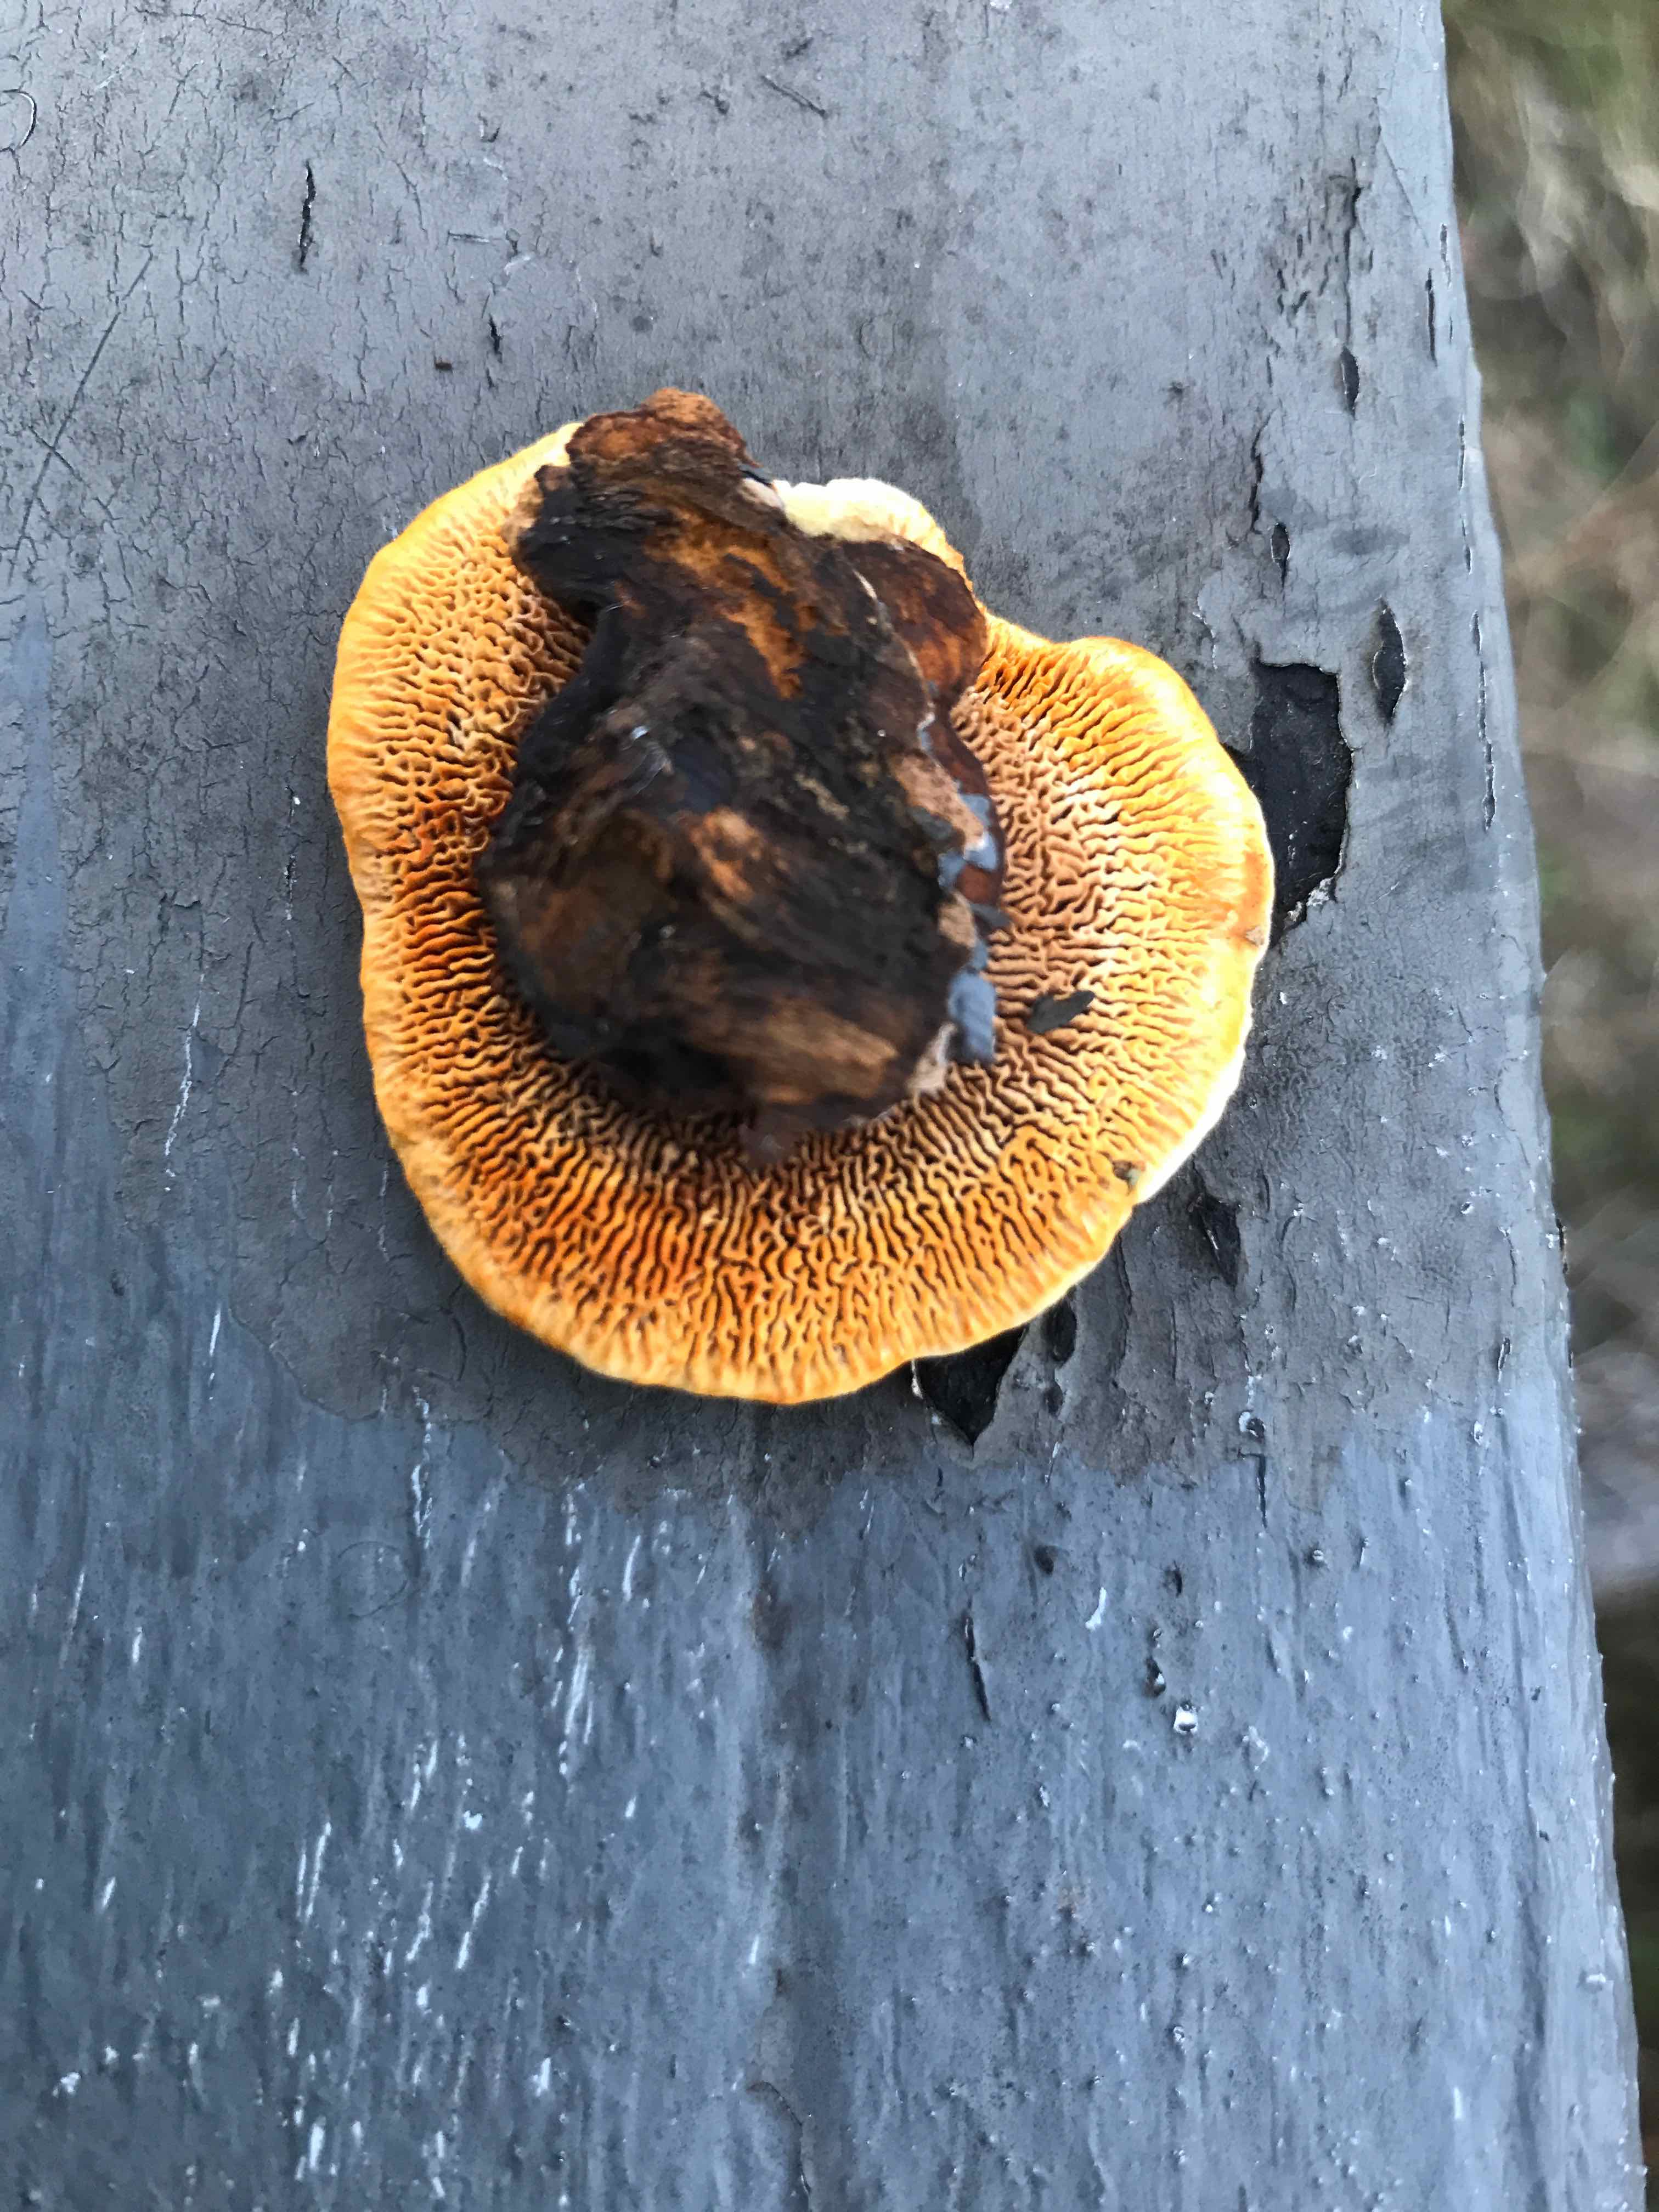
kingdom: Fungi
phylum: Basidiomycota
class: Agaricomycetes
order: Gloeophyllales
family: Gloeophyllaceae
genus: Gloeophyllum
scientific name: Gloeophyllum sepiarium
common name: fyrre-korkhat
